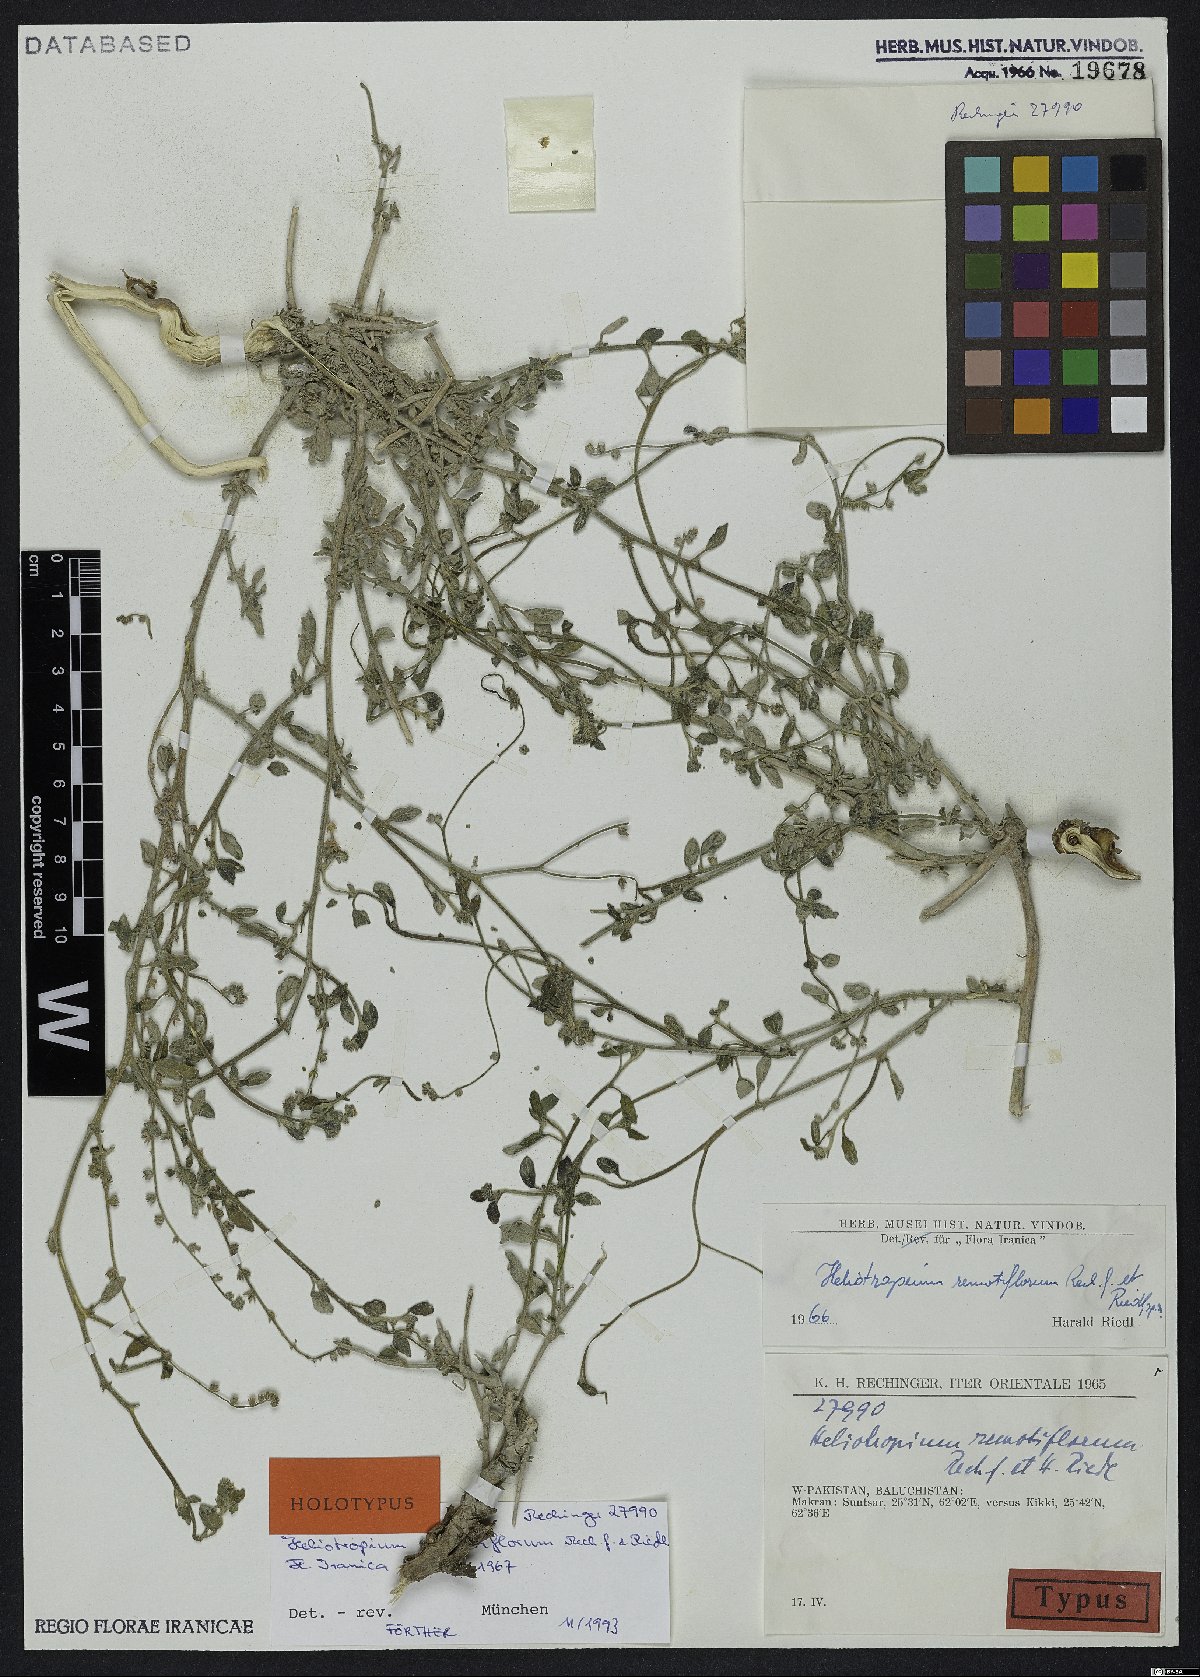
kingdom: Plantae
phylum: Tracheophyta
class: Magnoliopsida
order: Boraginales
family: Heliotropiaceae
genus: Heliotropium
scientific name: Heliotropium remotiflorum
